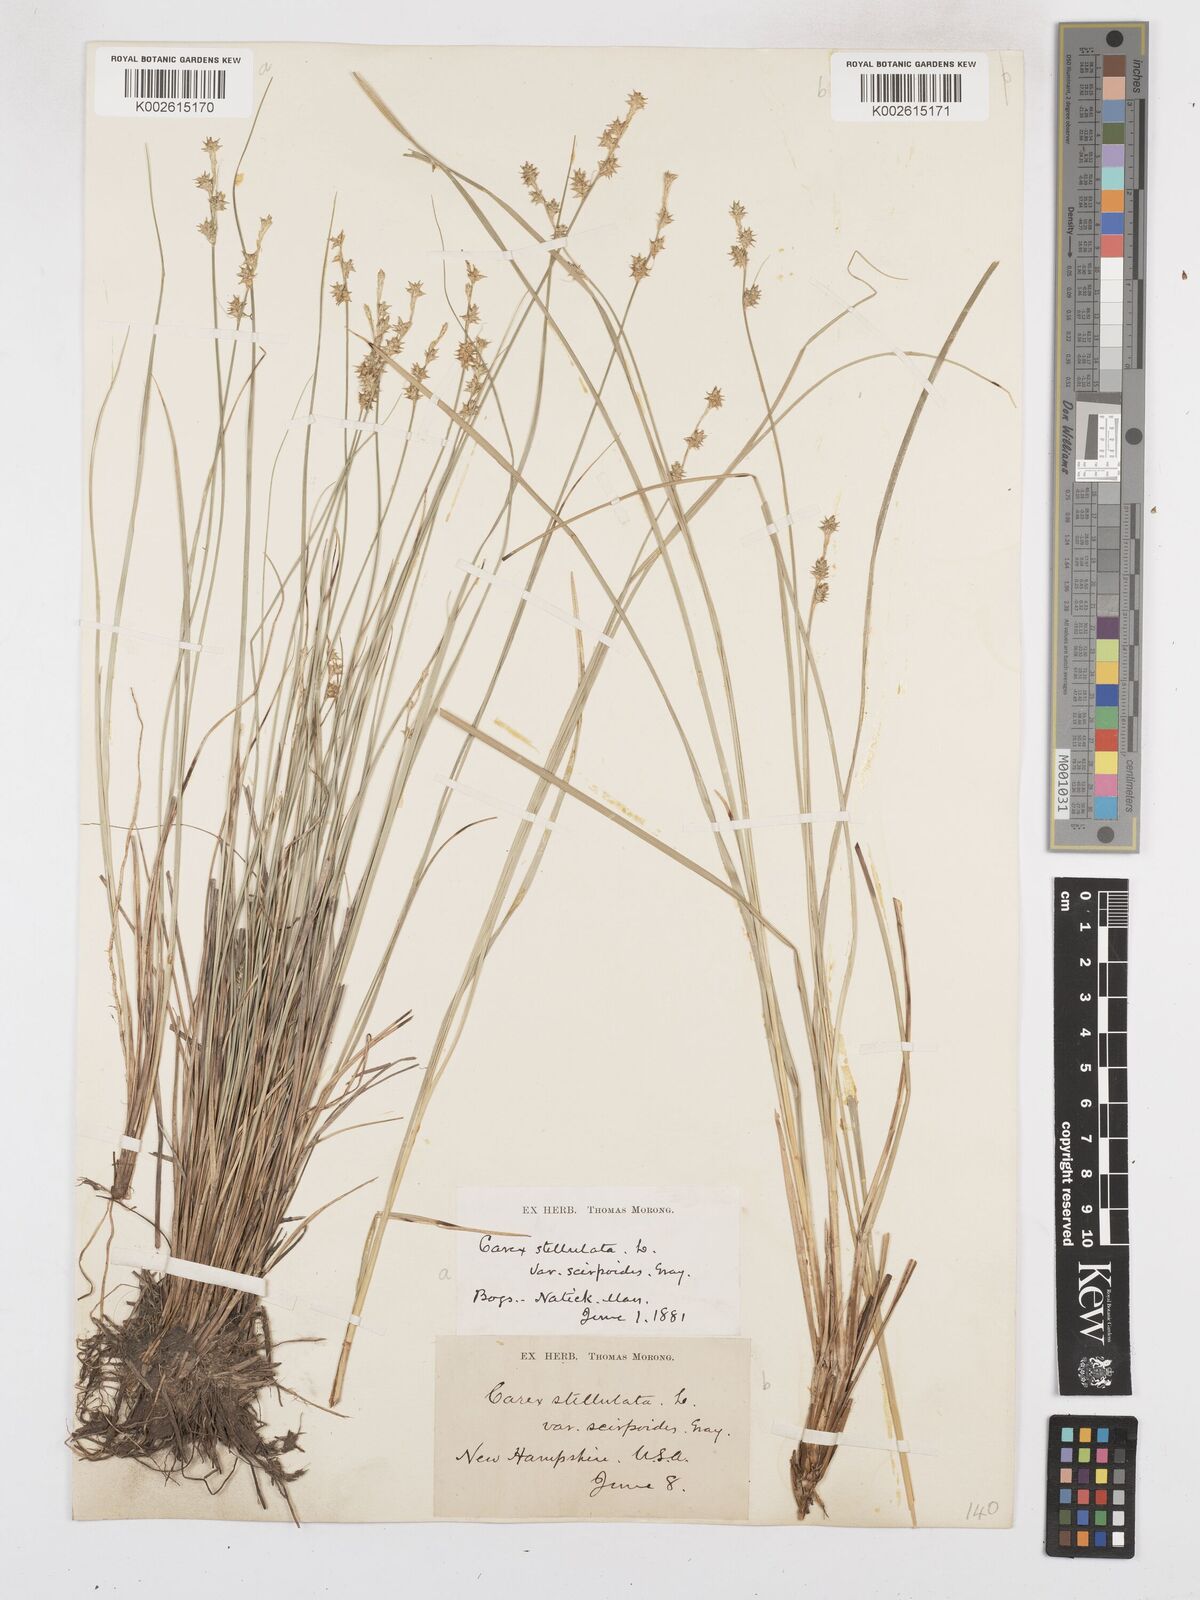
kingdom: Plantae
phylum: Tracheophyta
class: Liliopsida
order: Poales
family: Cyperaceae
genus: Carex
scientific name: Carex echinata
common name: Star sedge
